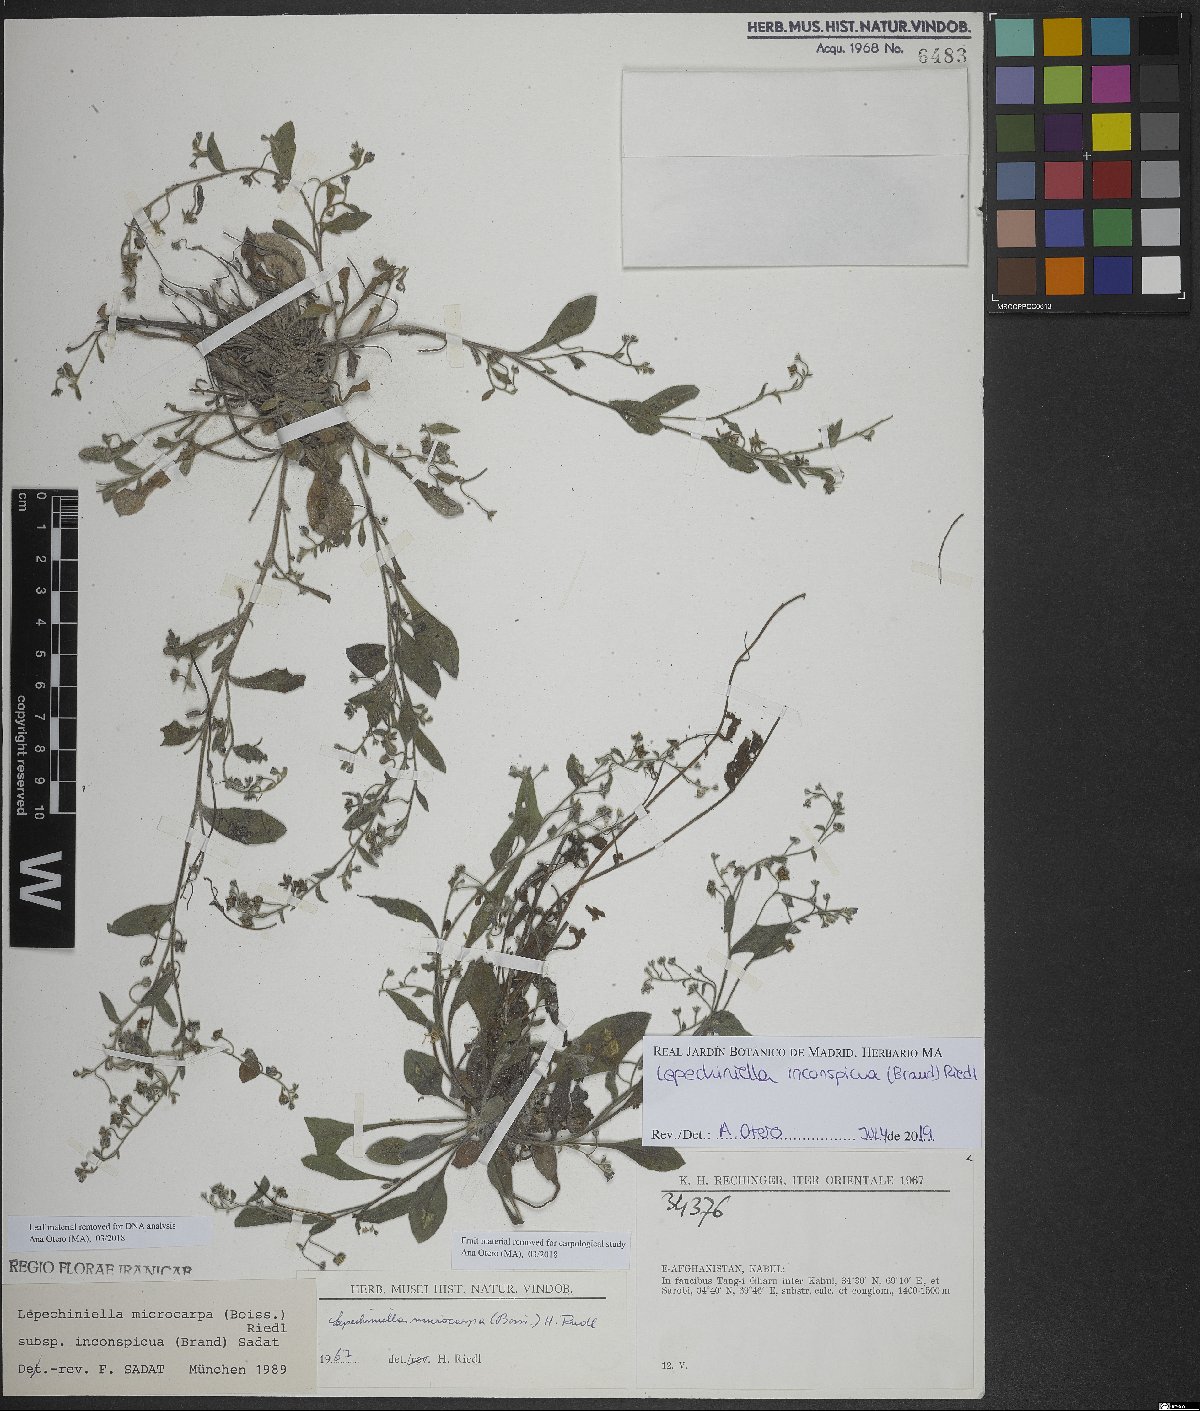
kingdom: Plantae
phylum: Tracheophyta
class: Magnoliopsida
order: Boraginales
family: Boraginaceae
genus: Lepechiniella
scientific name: Lepechiniella microcarpa
